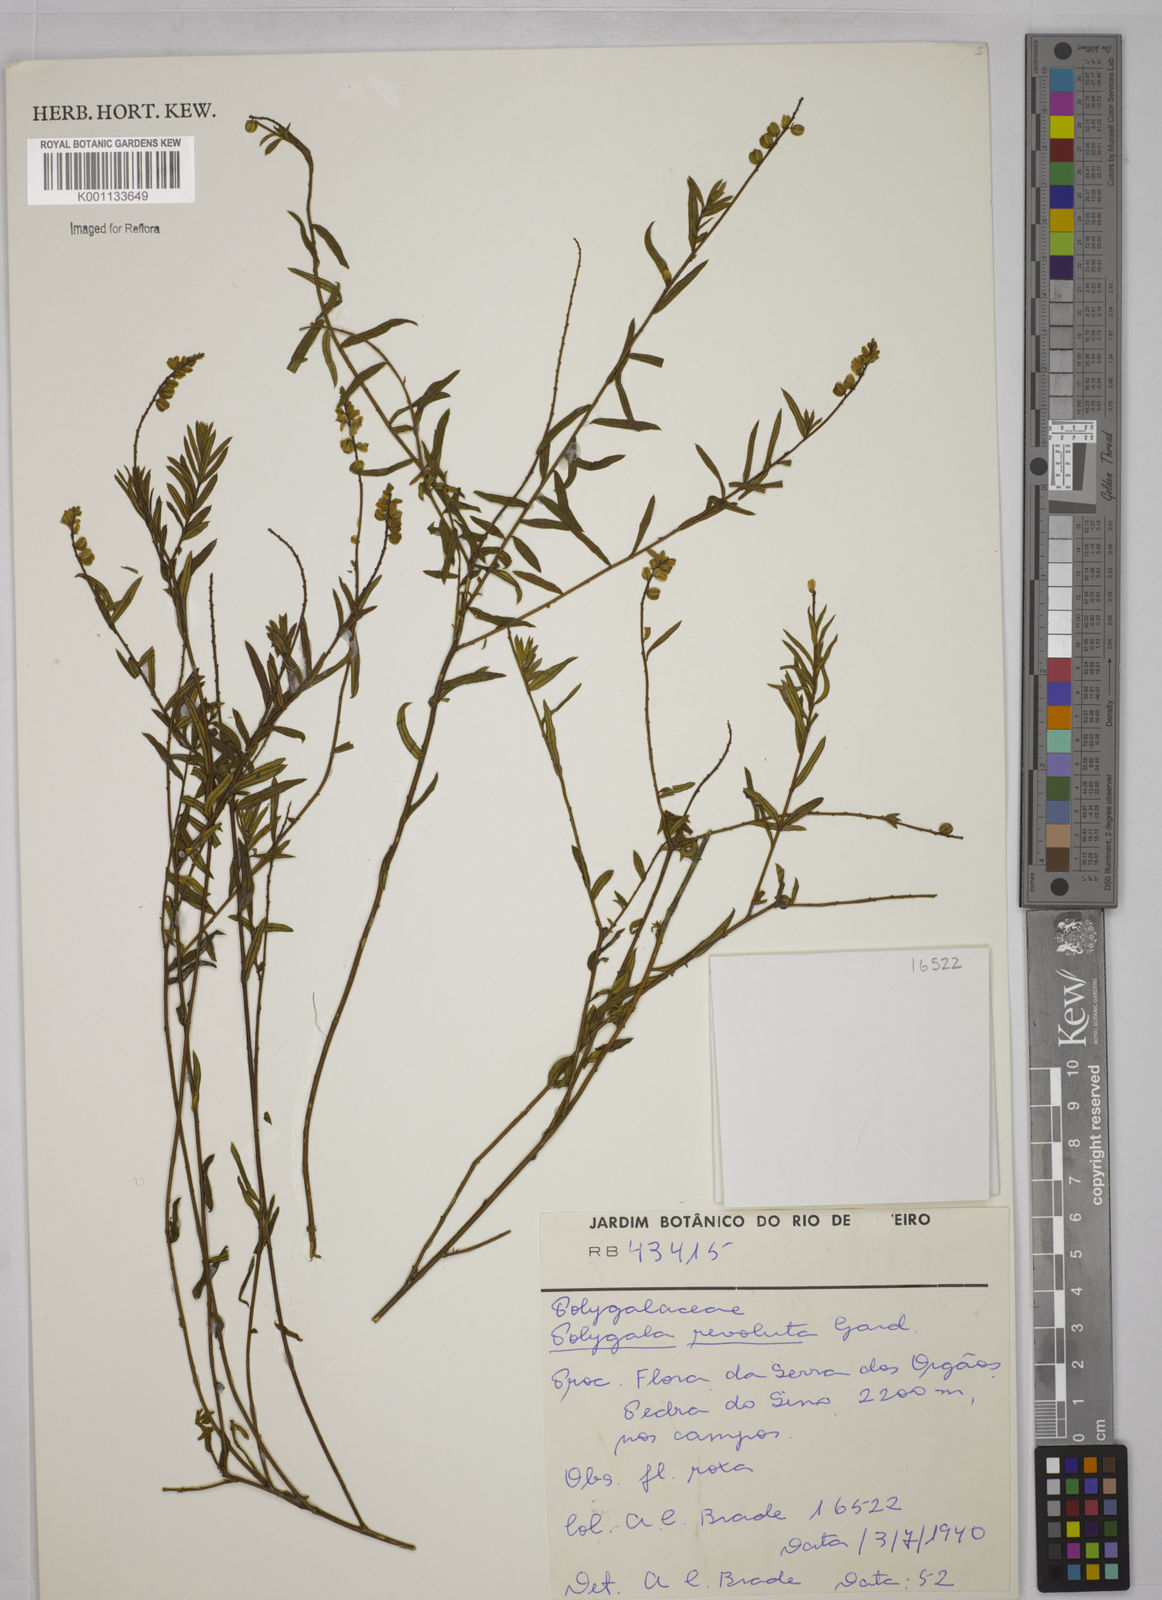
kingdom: Plantae
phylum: Tracheophyta
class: Magnoliopsida
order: Fabales
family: Polygalaceae
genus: Polygala
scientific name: Polygala revoluta
